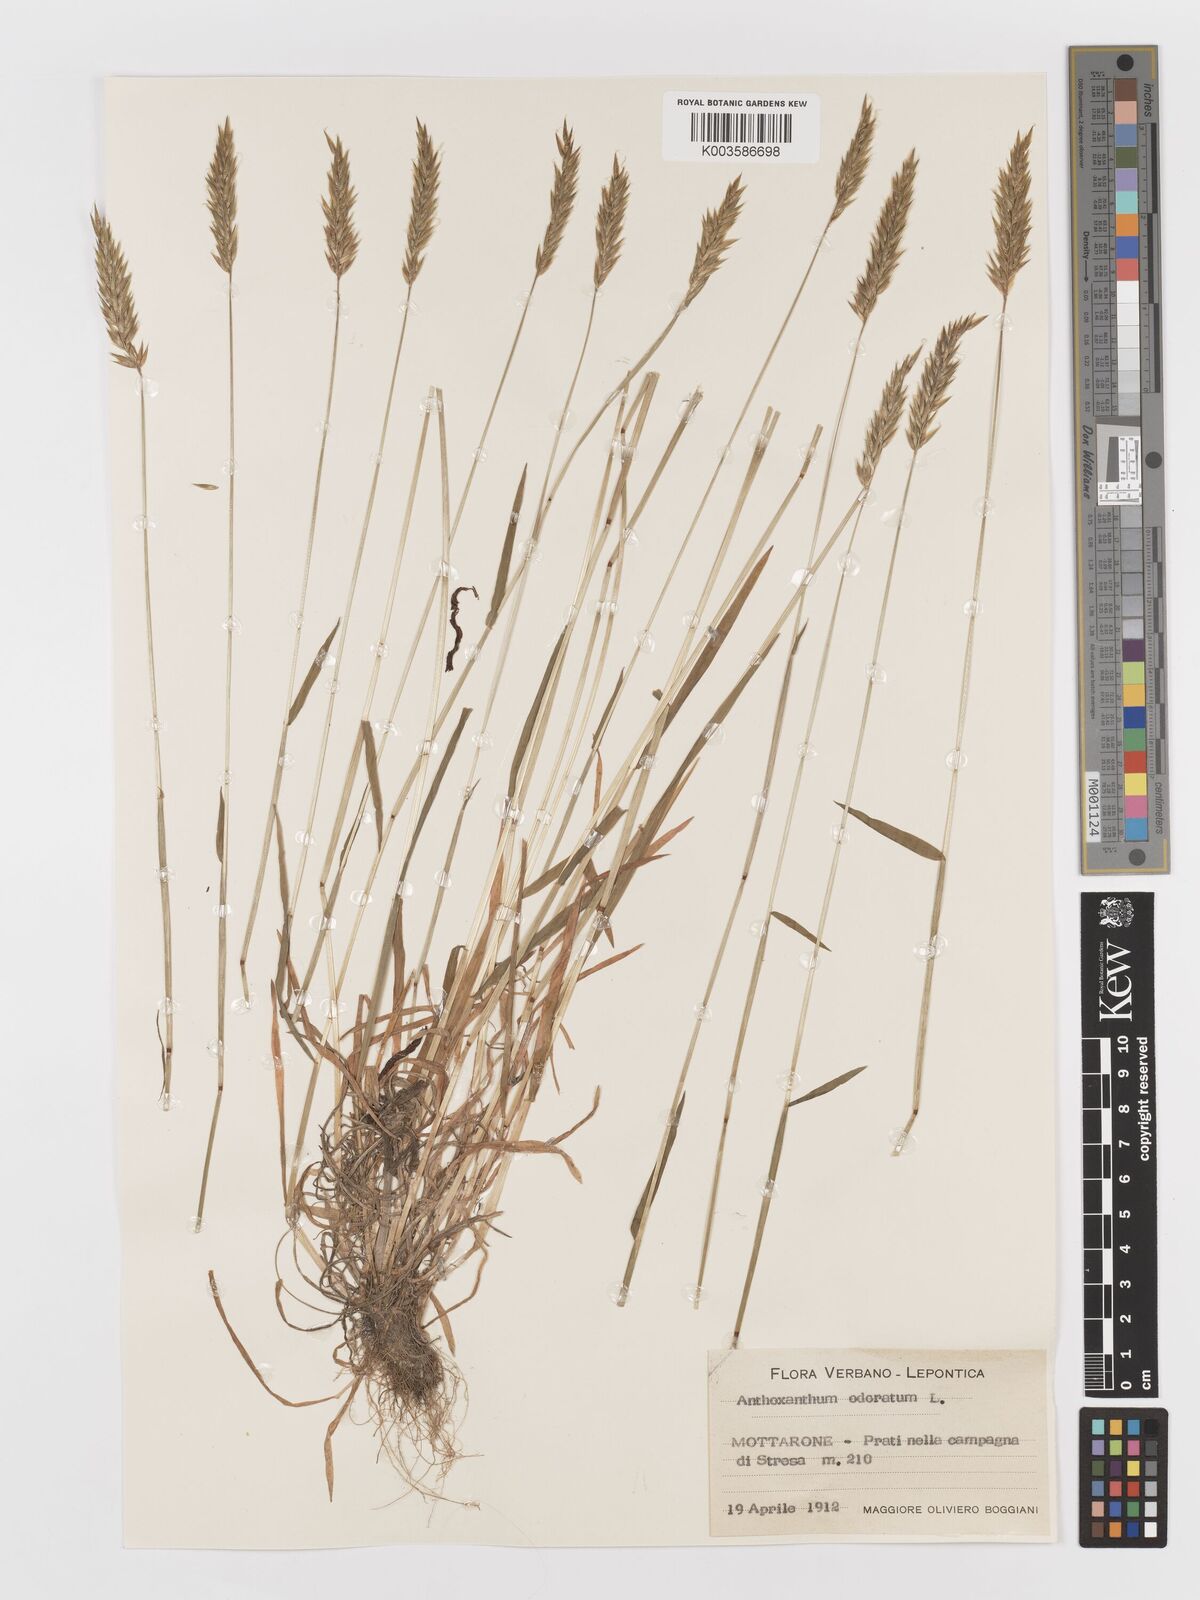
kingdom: Plantae
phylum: Tracheophyta
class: Liliopsida
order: Poales
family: Poaceae
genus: Anthoxanthum
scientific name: Anthoxanthum odoratum
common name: Sweet vernalgrass
